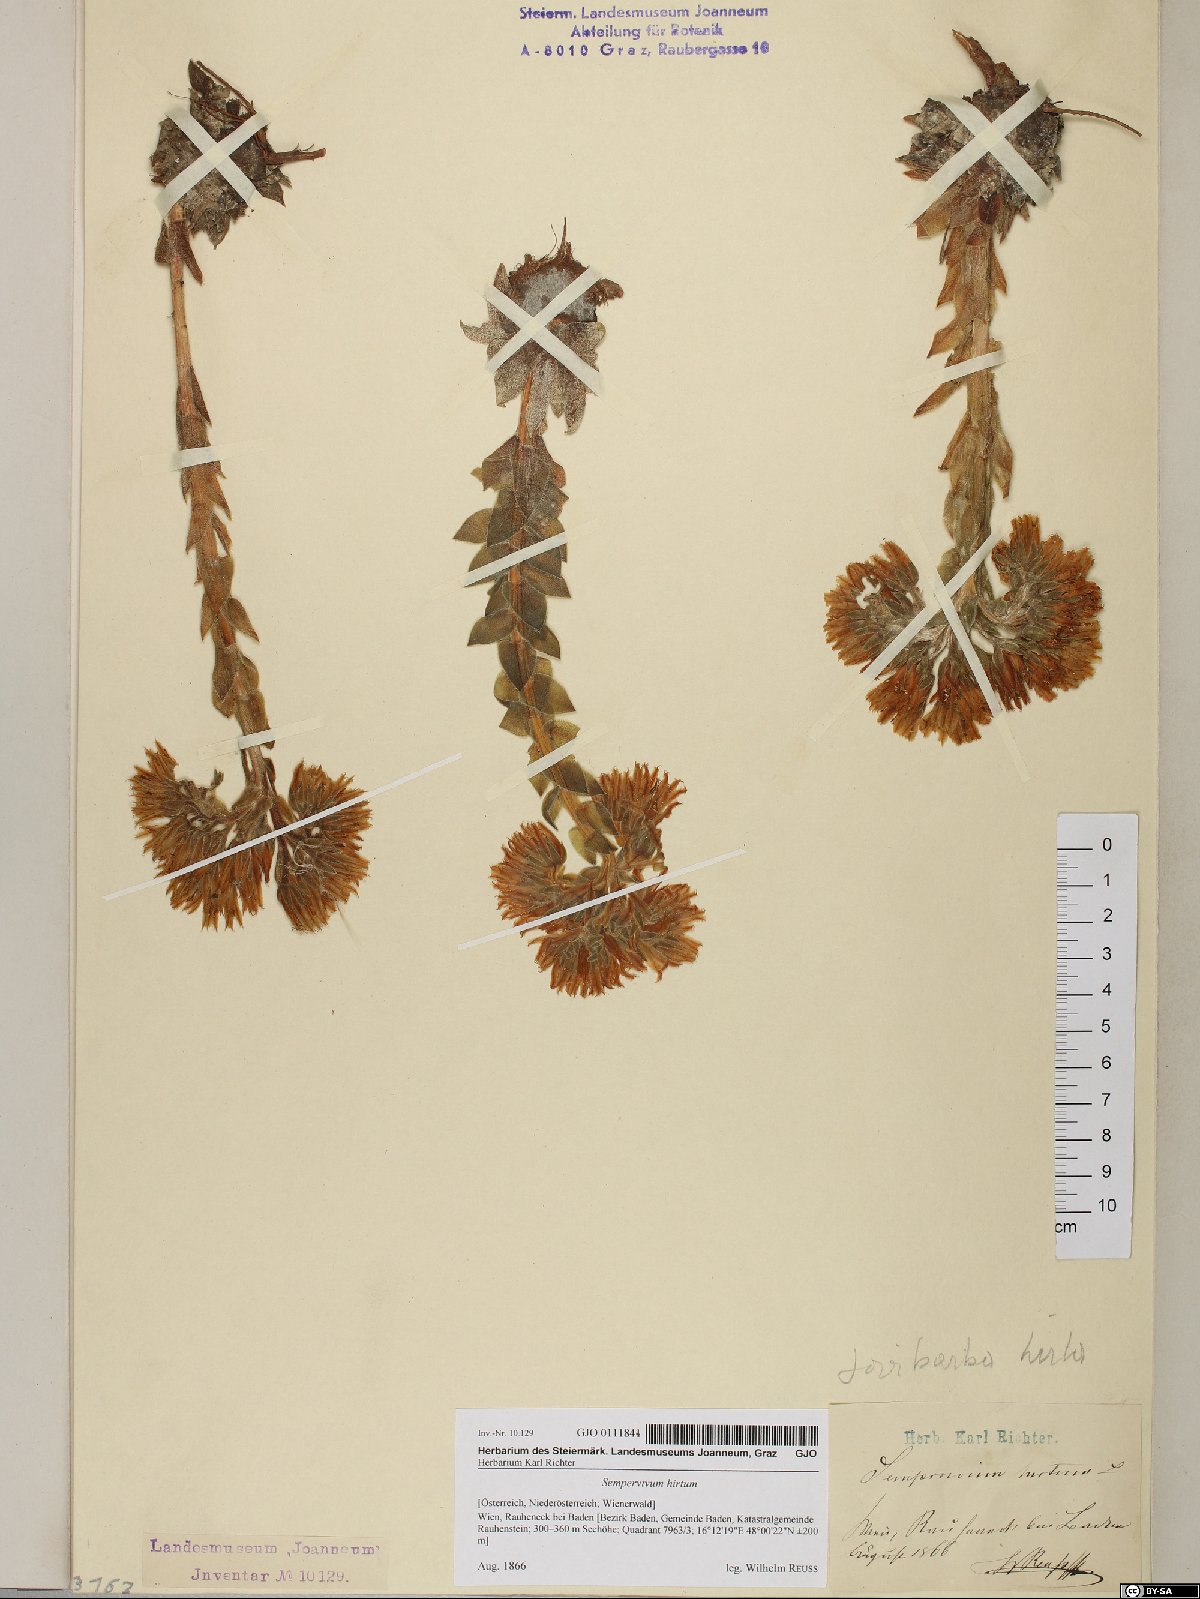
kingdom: Plantae
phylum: Tracheophyta
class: Magnoliopsida
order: Saxifragales
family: Crassulaceae
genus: Sempervivum
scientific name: Sempervivum globiferum
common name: Rolling hen-and-chicks
